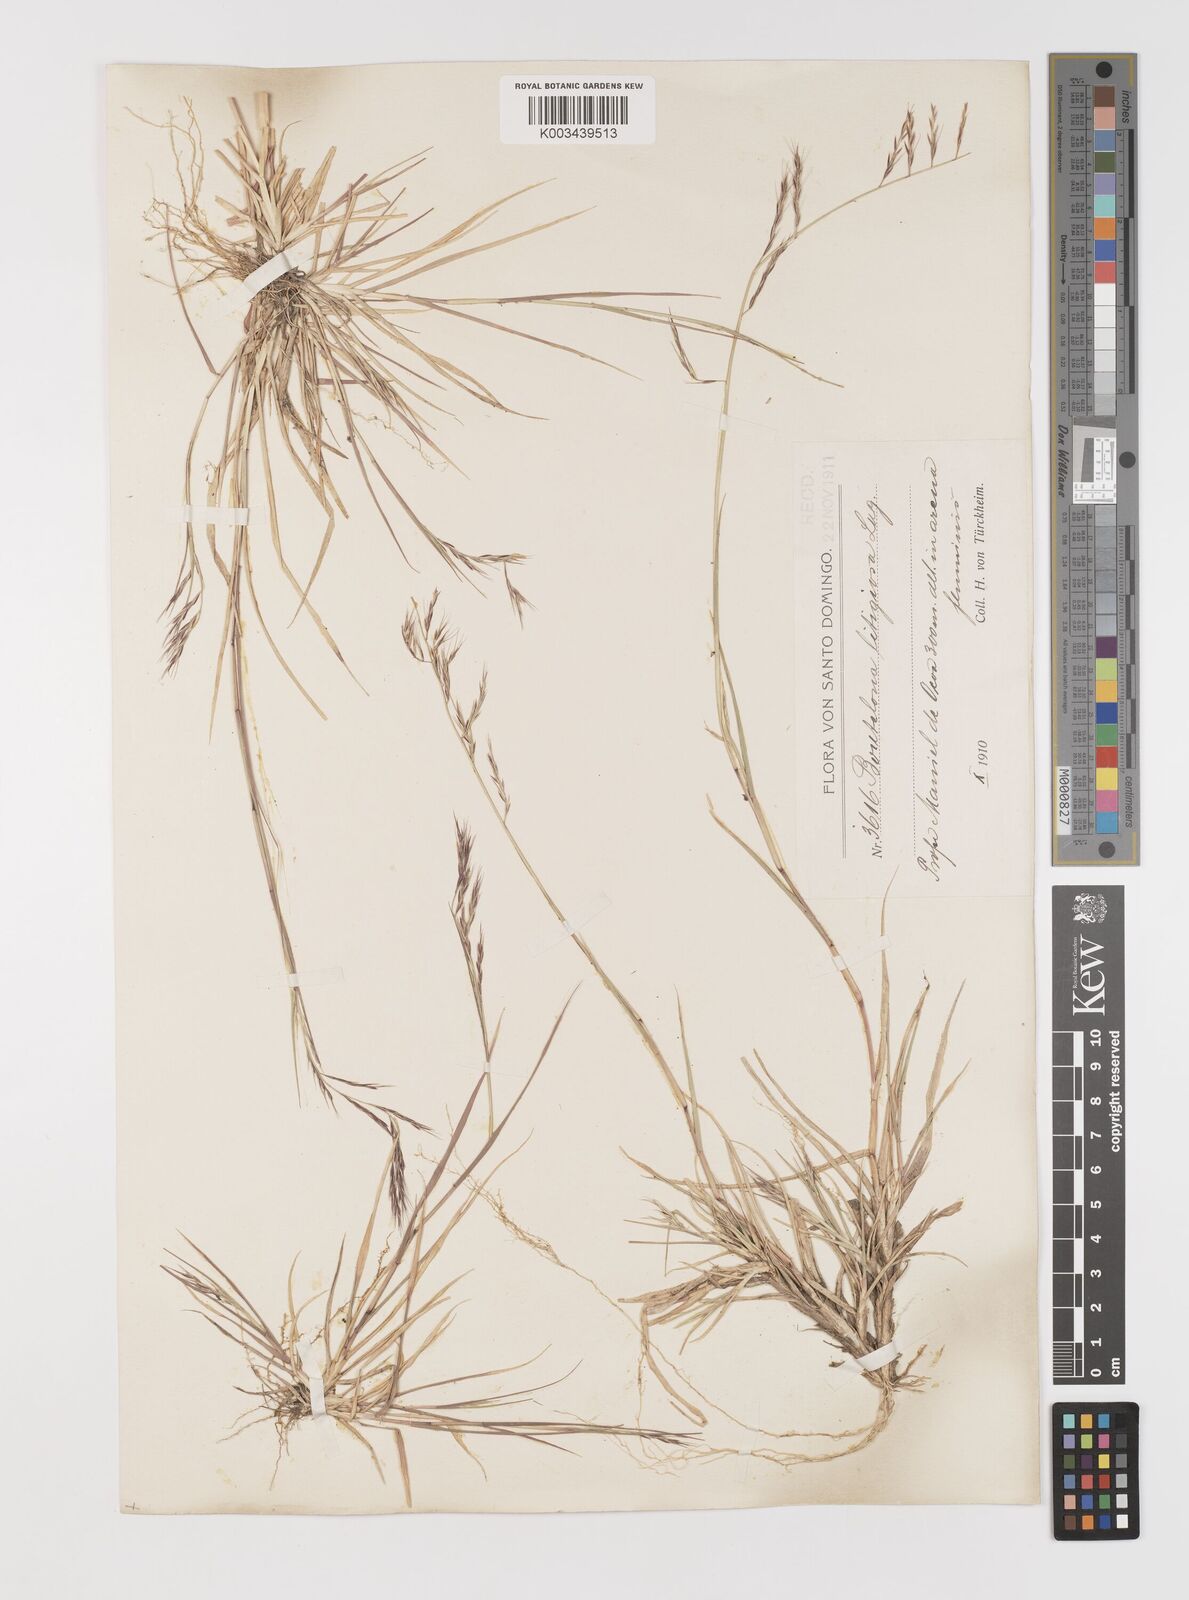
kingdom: Plantae
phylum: Tracheophyta
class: Liliopsida
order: Poales
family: Poaceae
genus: Bouteloua
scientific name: Bouteloua americana
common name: Mule grass
